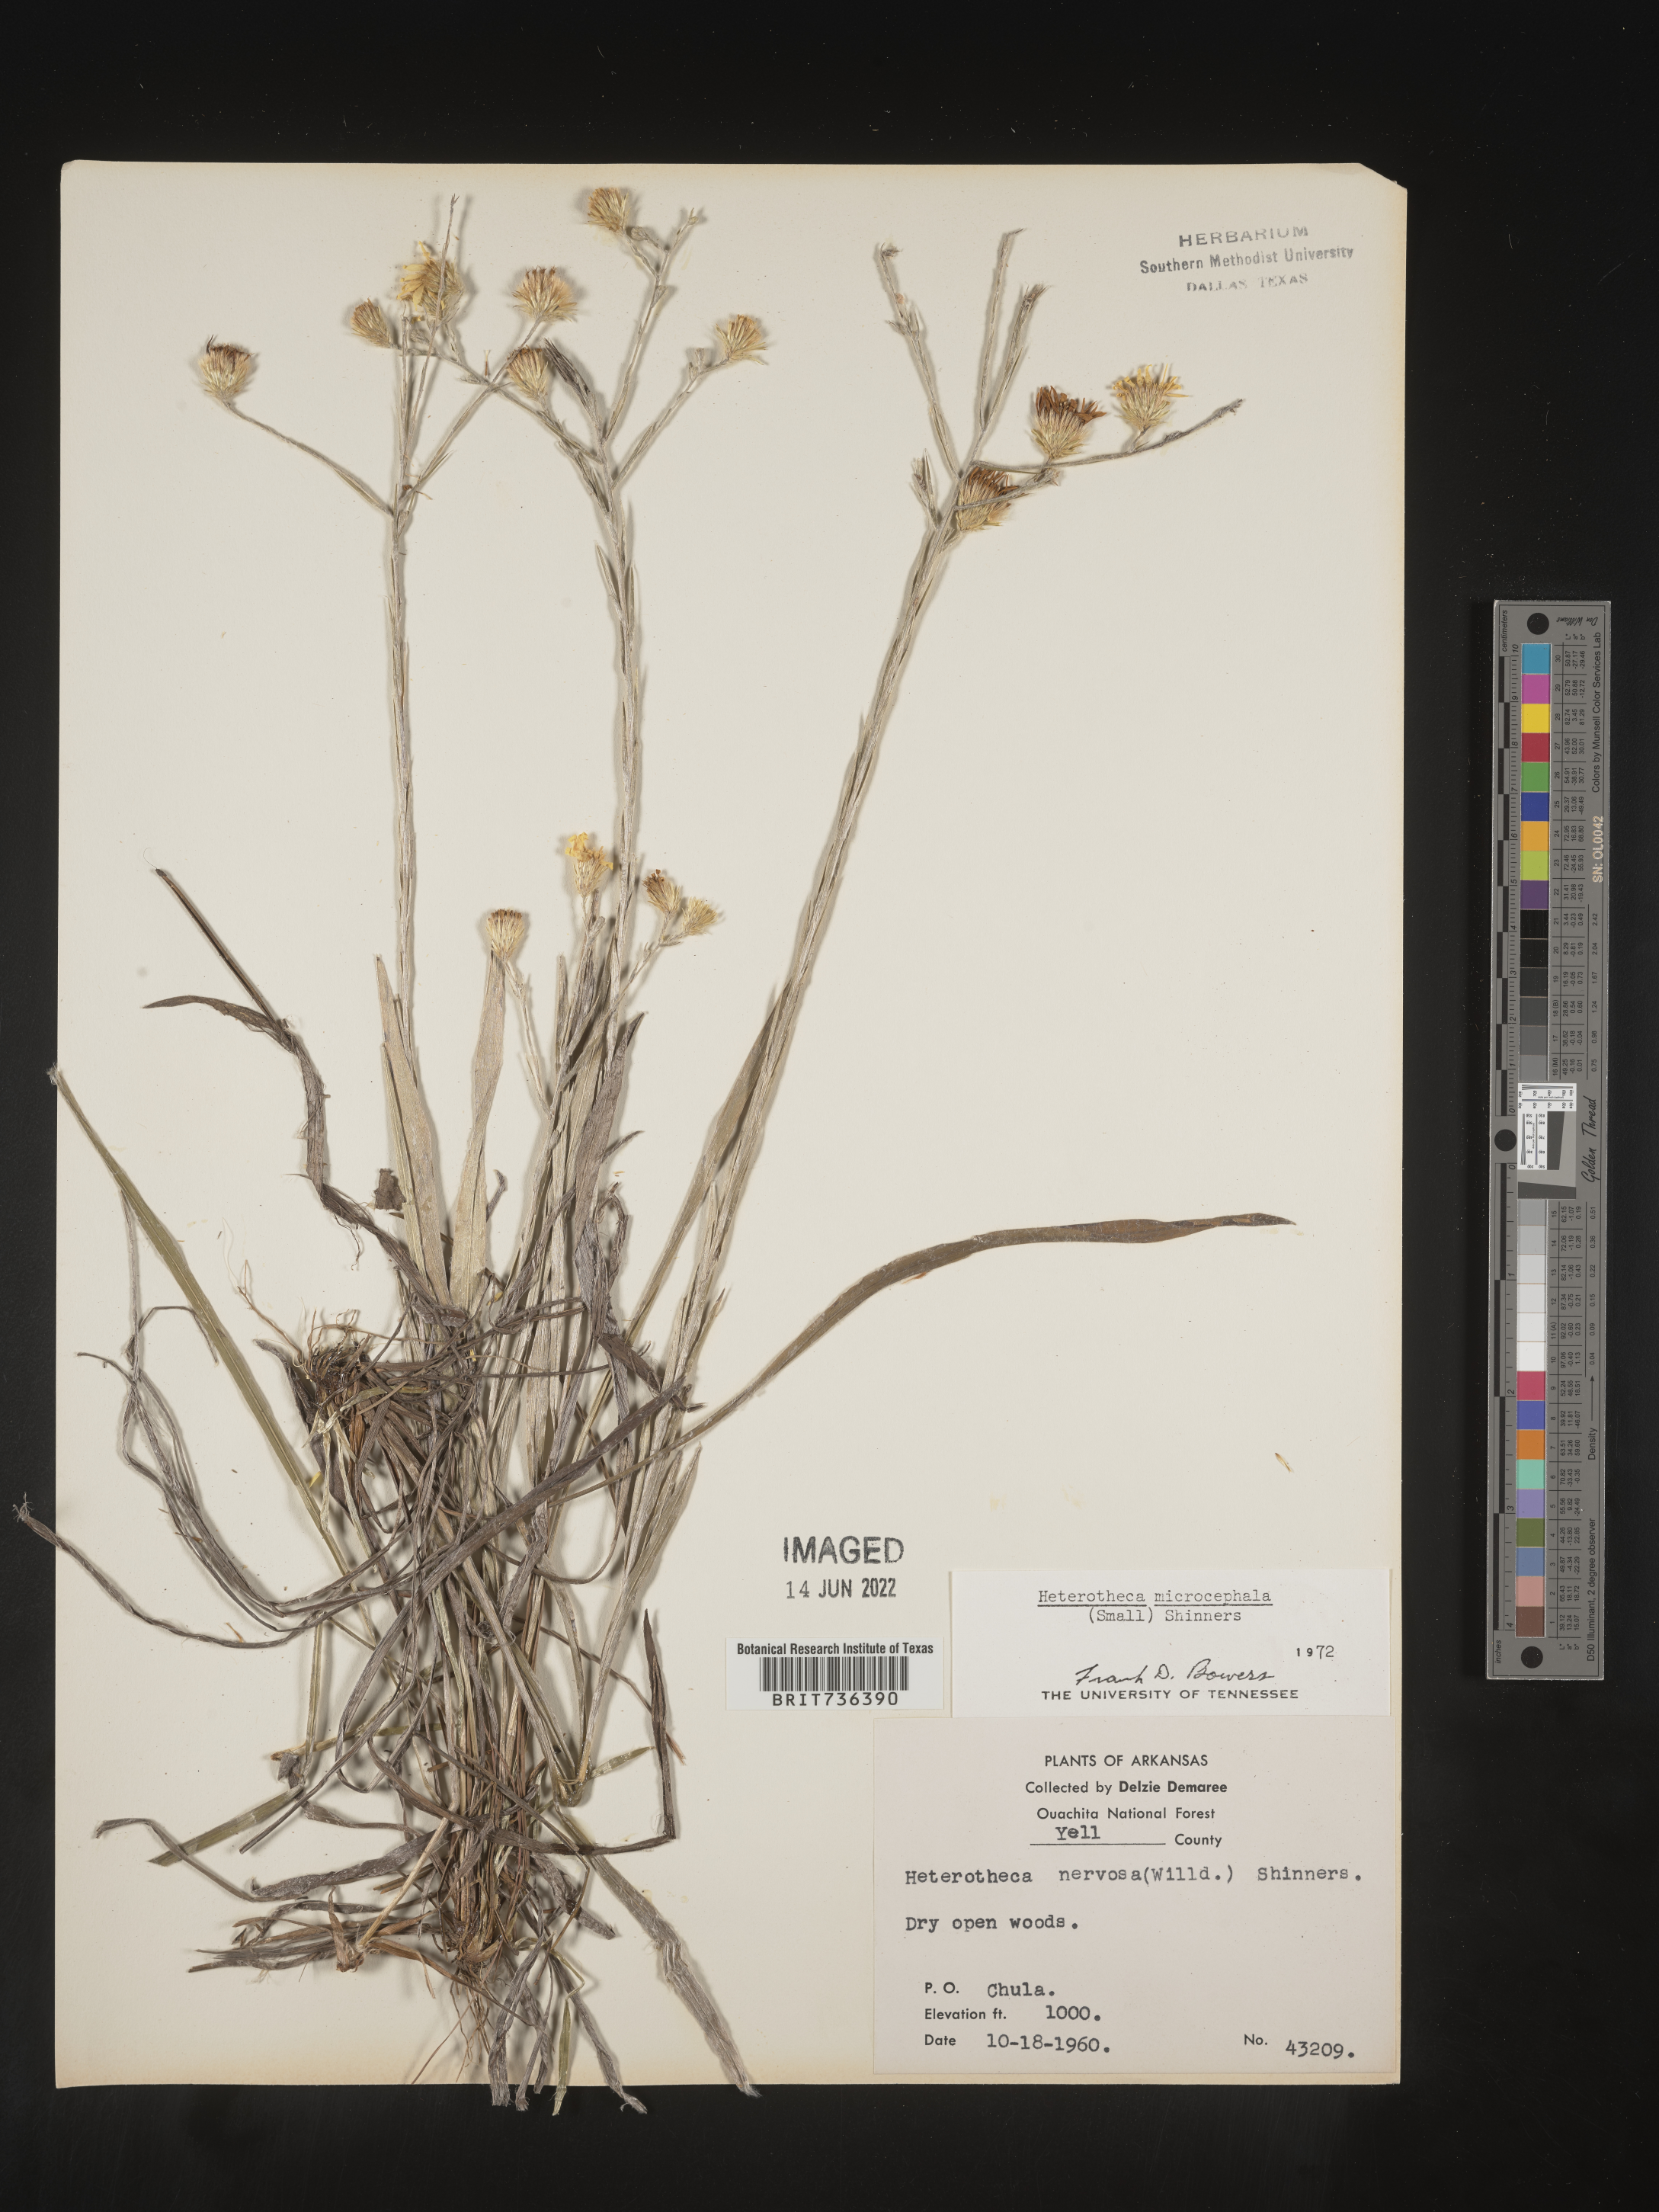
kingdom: Plantae
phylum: Tracheophyta
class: Magnoliopsida
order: Asterales
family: Asteraceae
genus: Pityopsis
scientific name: Pityopsis tenuifolia
